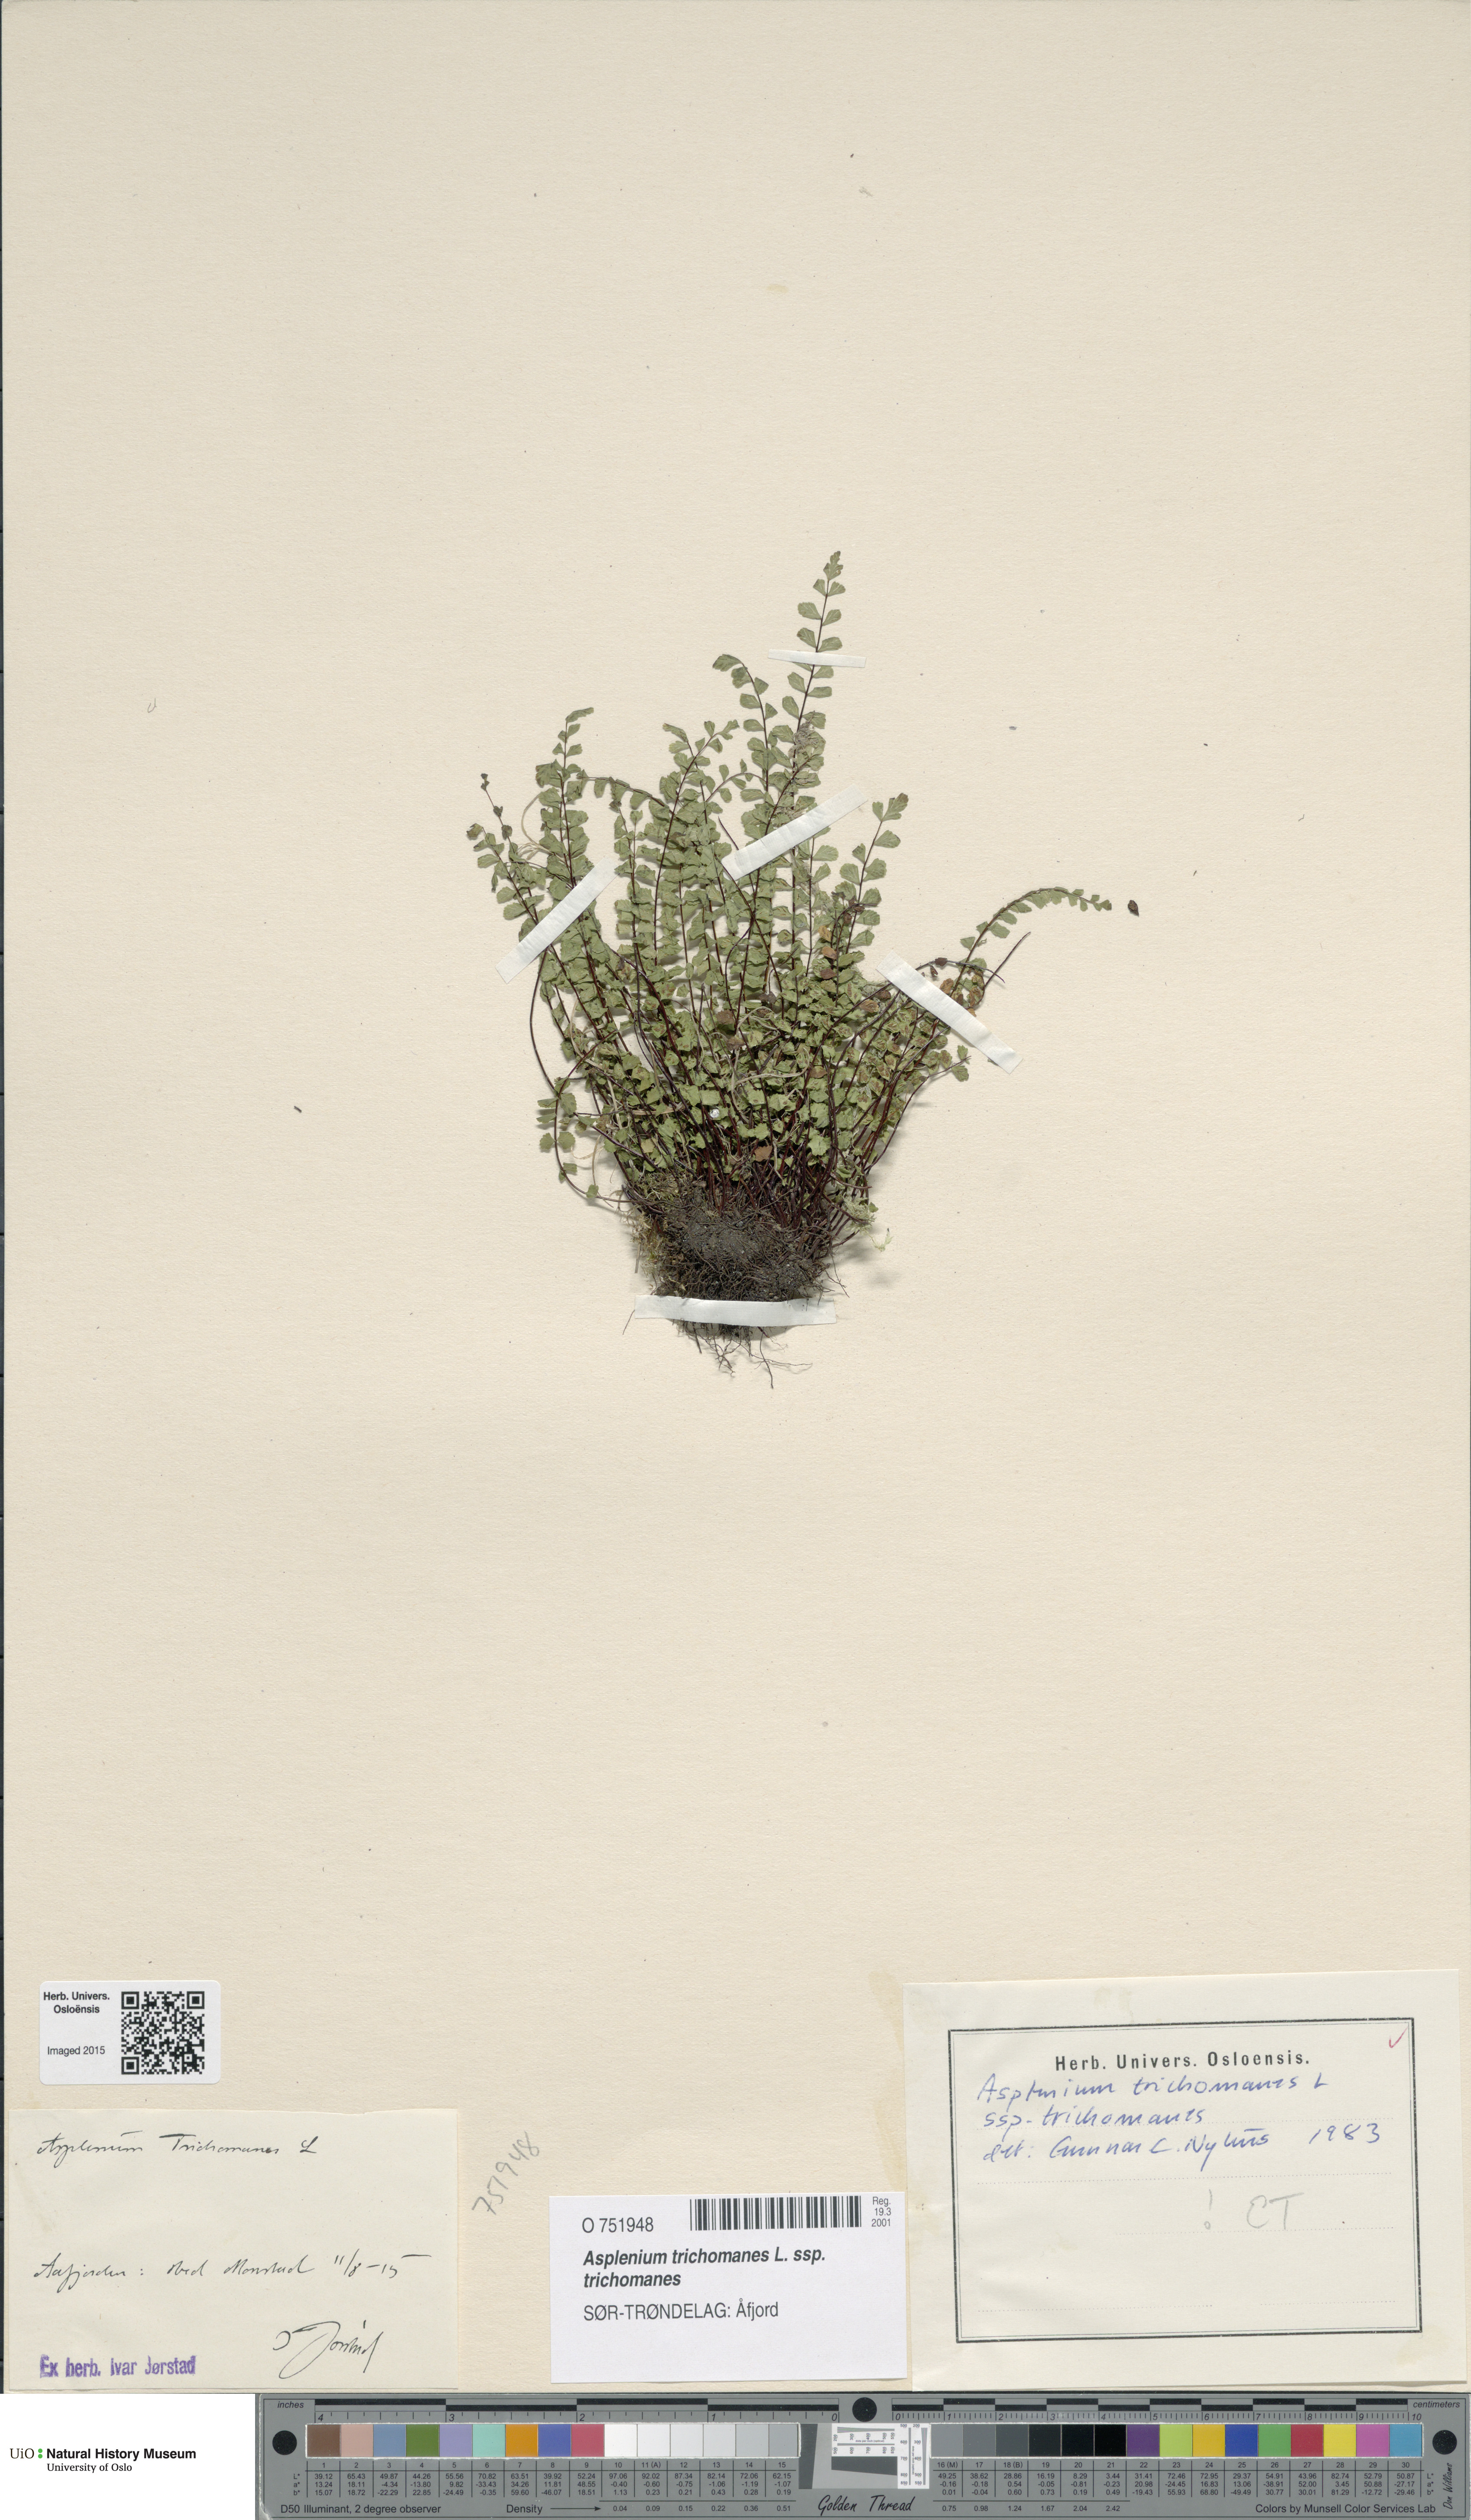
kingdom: Plantae
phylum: Tracheophyta
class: Polypodiopsida
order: Polypodiales
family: Aspleniaceae
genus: Asplenium
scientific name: Asplenium trichomanes
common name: Maidenhair spleenwort
